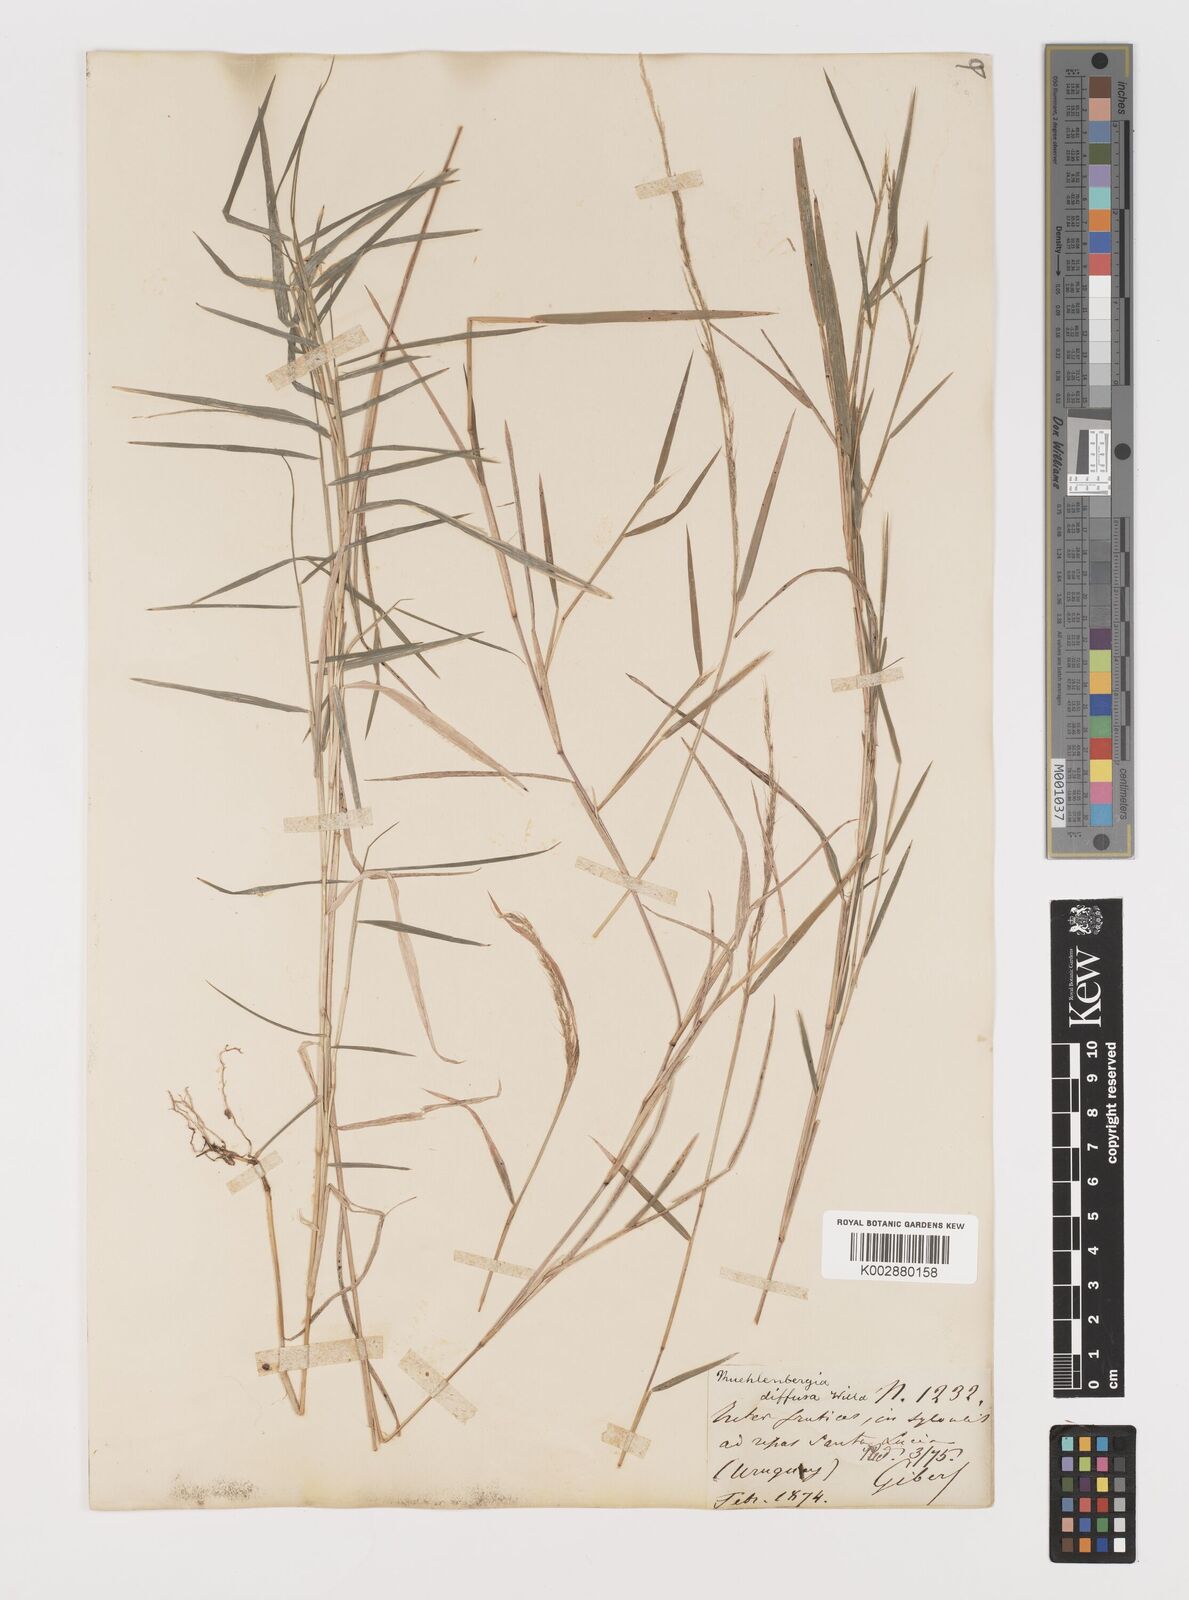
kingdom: Plantae
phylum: Tracheophyta
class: Liliopsida
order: Poales
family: Poaceae
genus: Muhlenbergia
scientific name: Muhlenbergia schreberi
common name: Nimblewill
